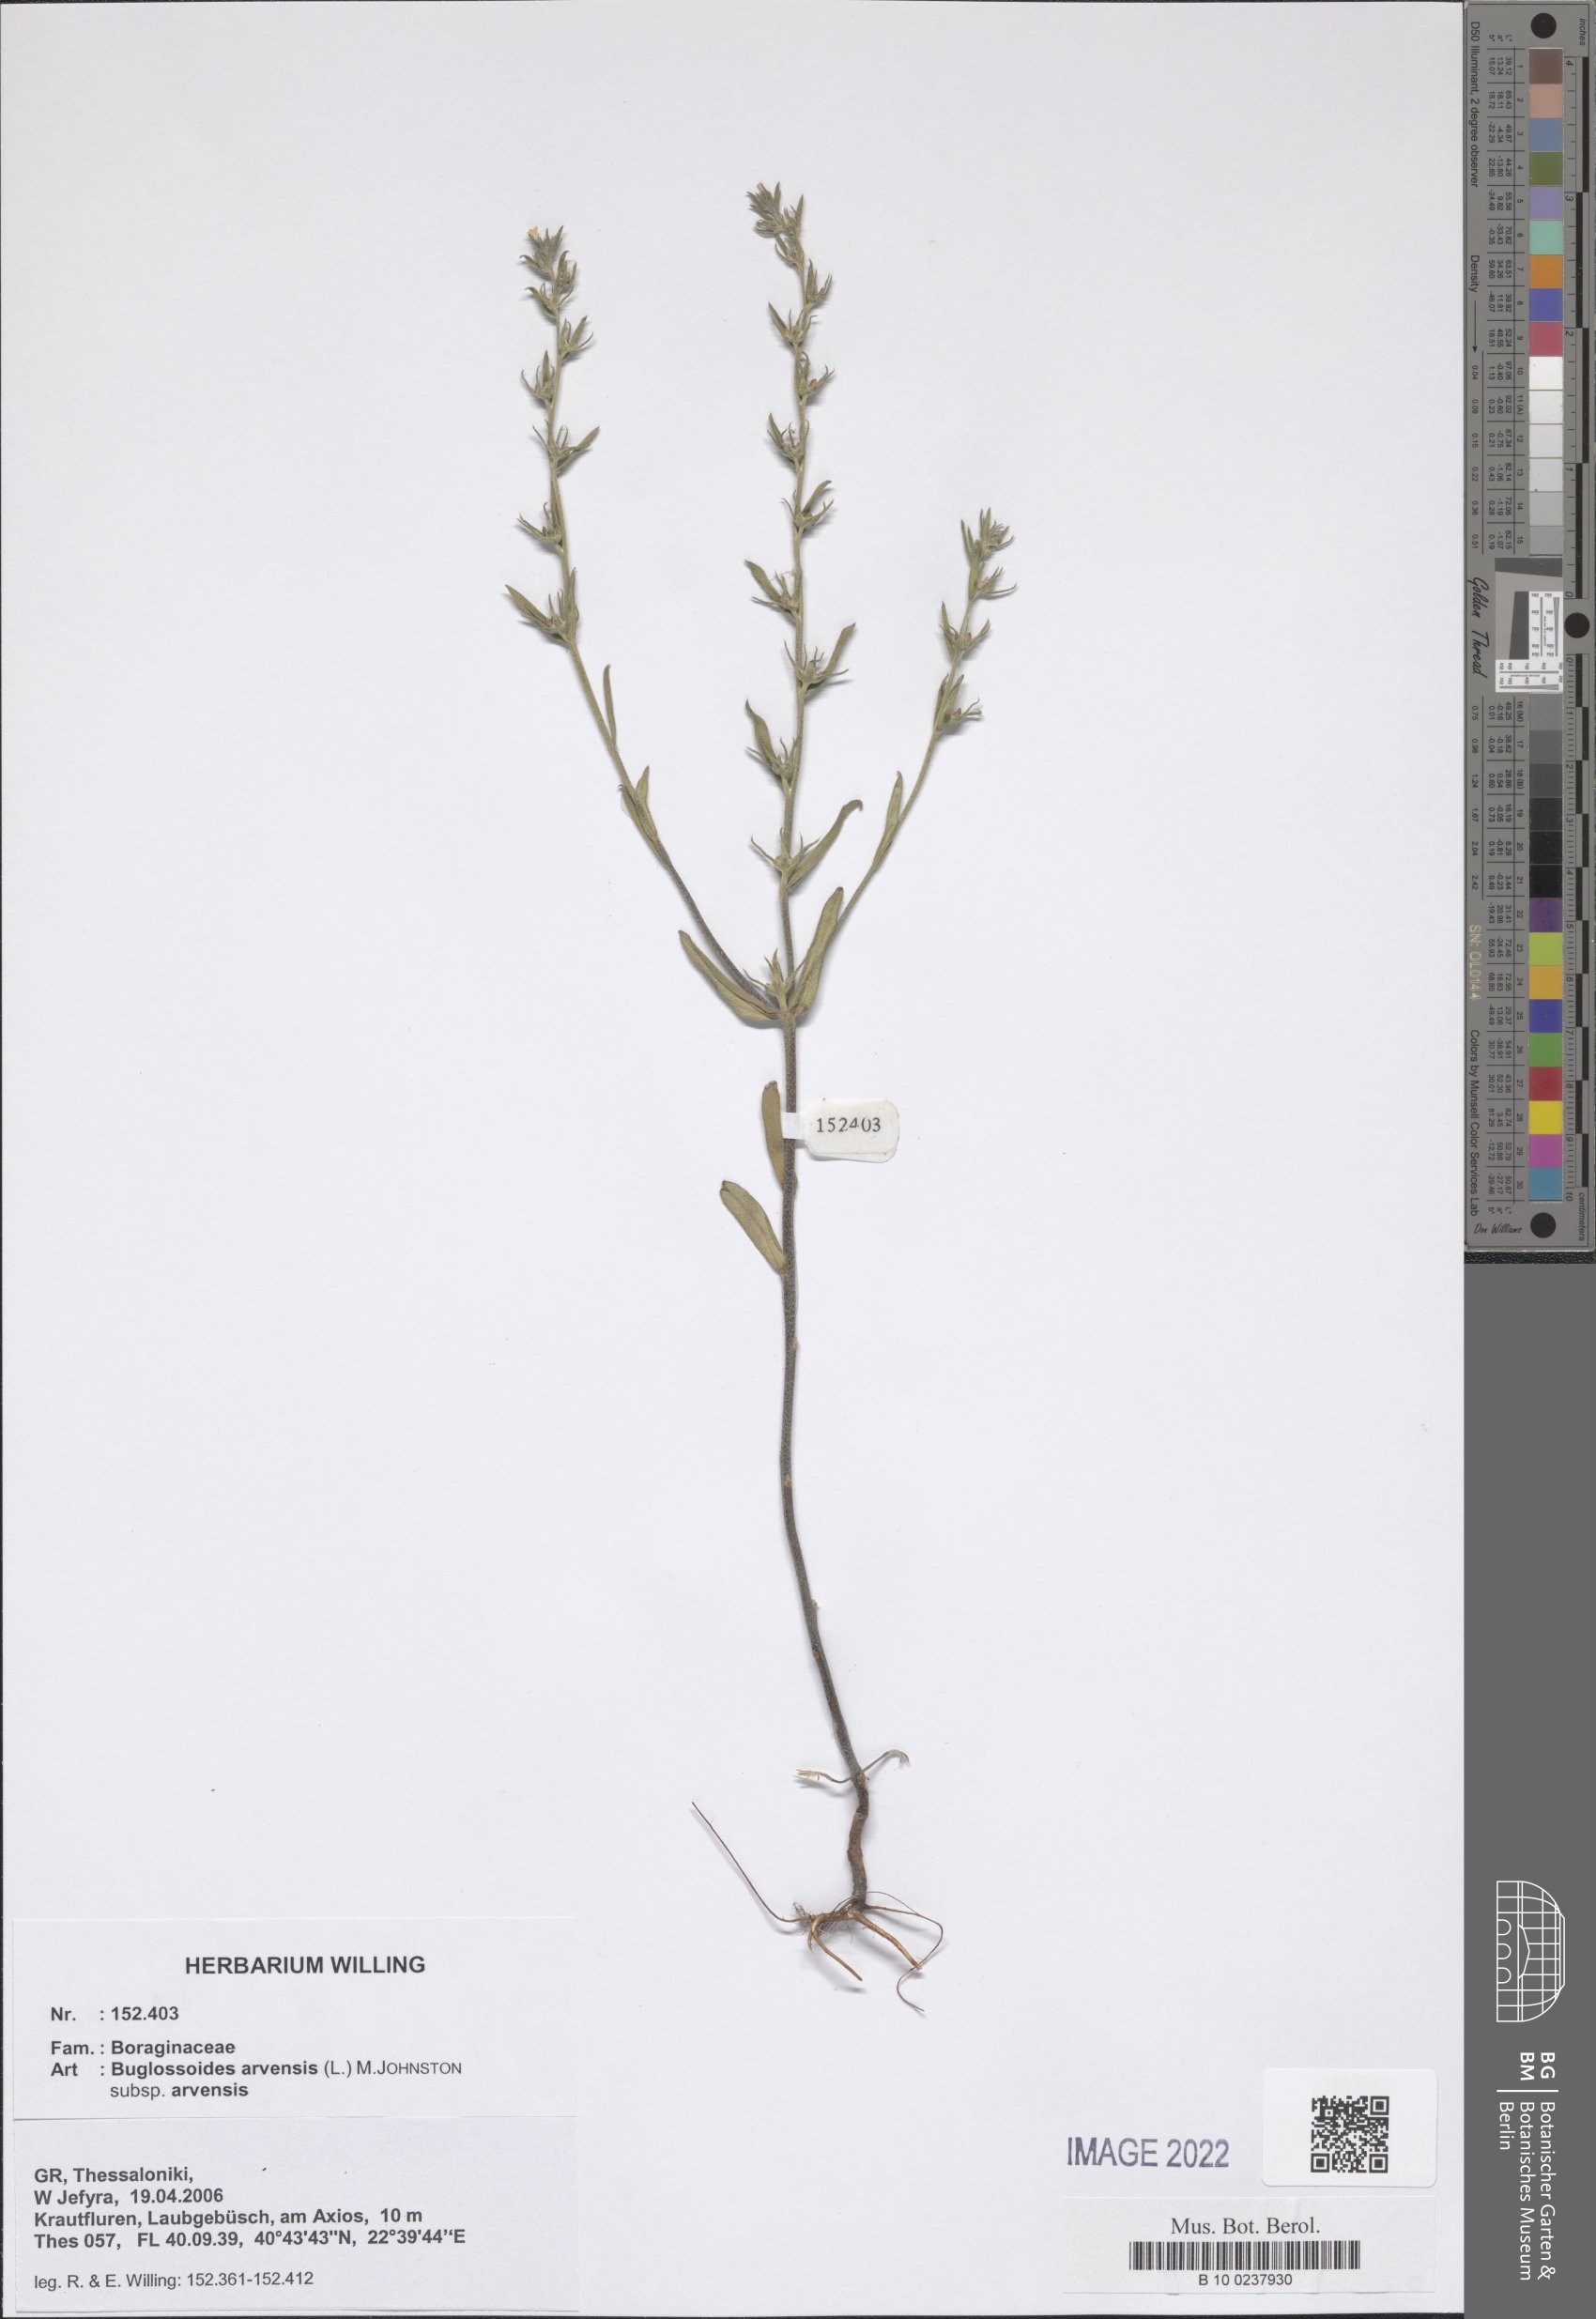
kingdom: Plantae
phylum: Tracheophyta
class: Magnoliopsida
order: Boraginales
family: Boraginaceae
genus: Buglossoides
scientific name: Buglossoides arvensis
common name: Corn gromwell
